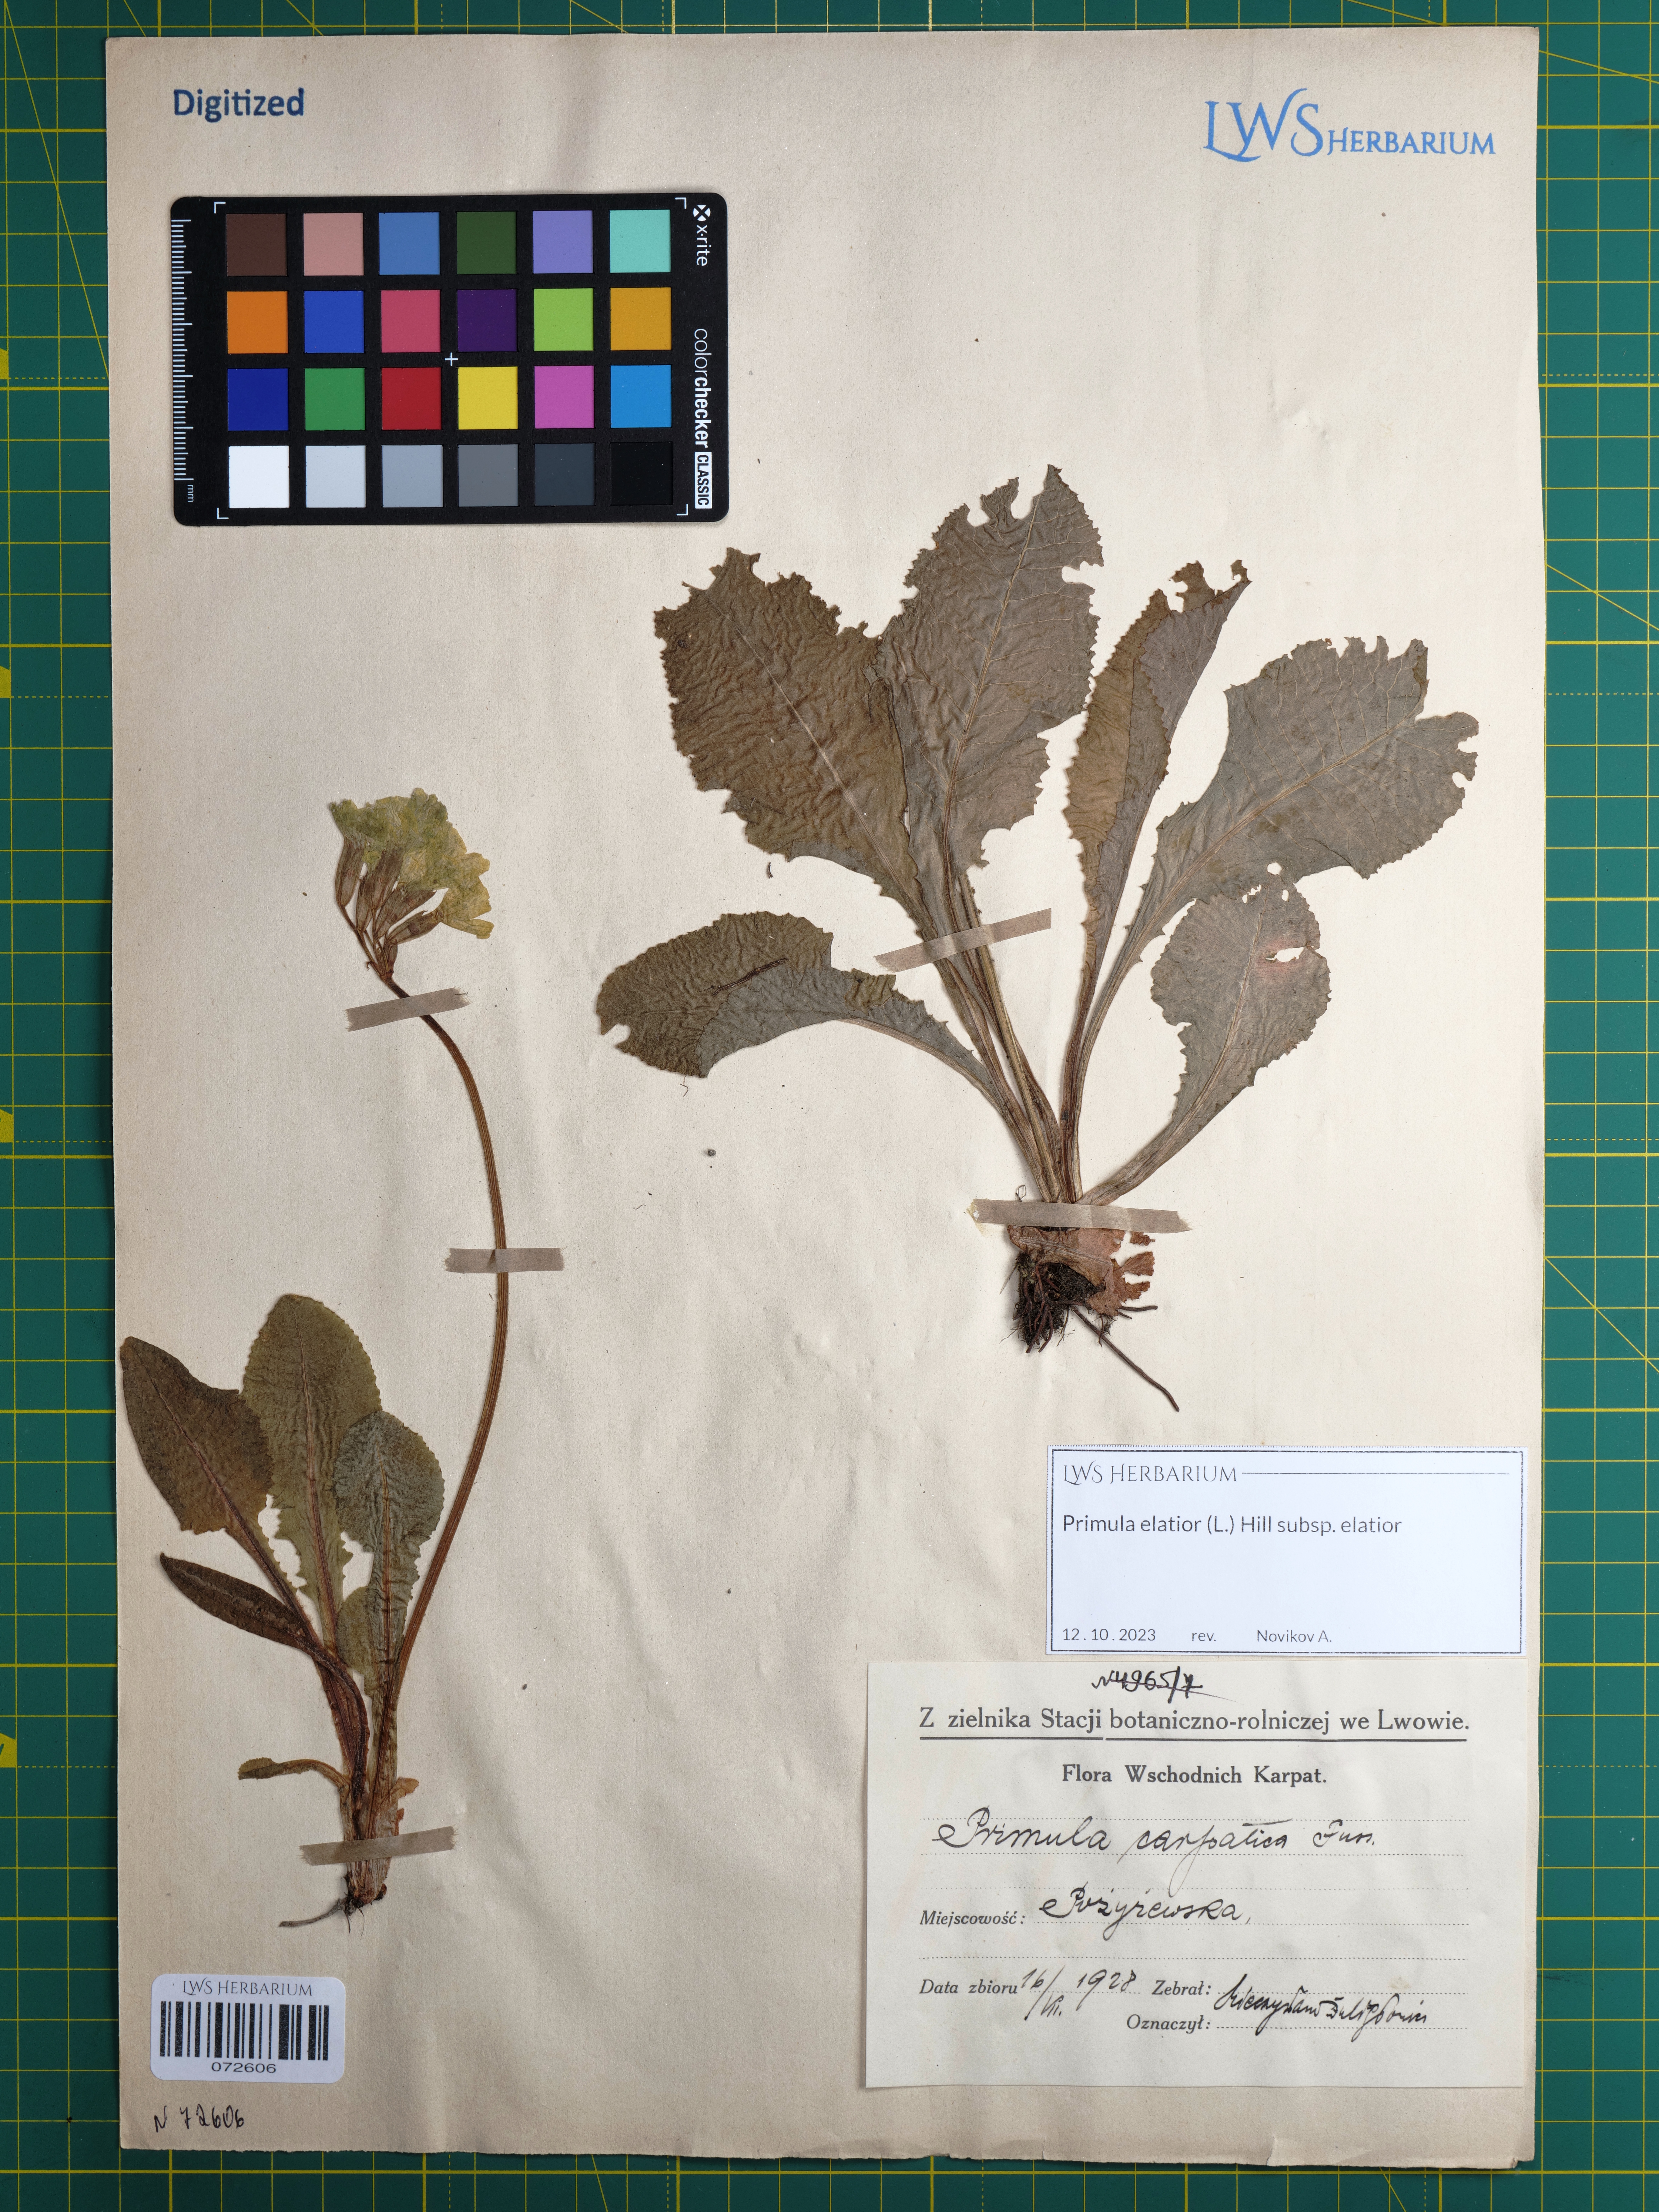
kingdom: Plantae
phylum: Tracheophyta
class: Magnoliopsida
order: Ericales
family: Primulaceae
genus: Primula
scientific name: Primula elatior
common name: Oxlip
